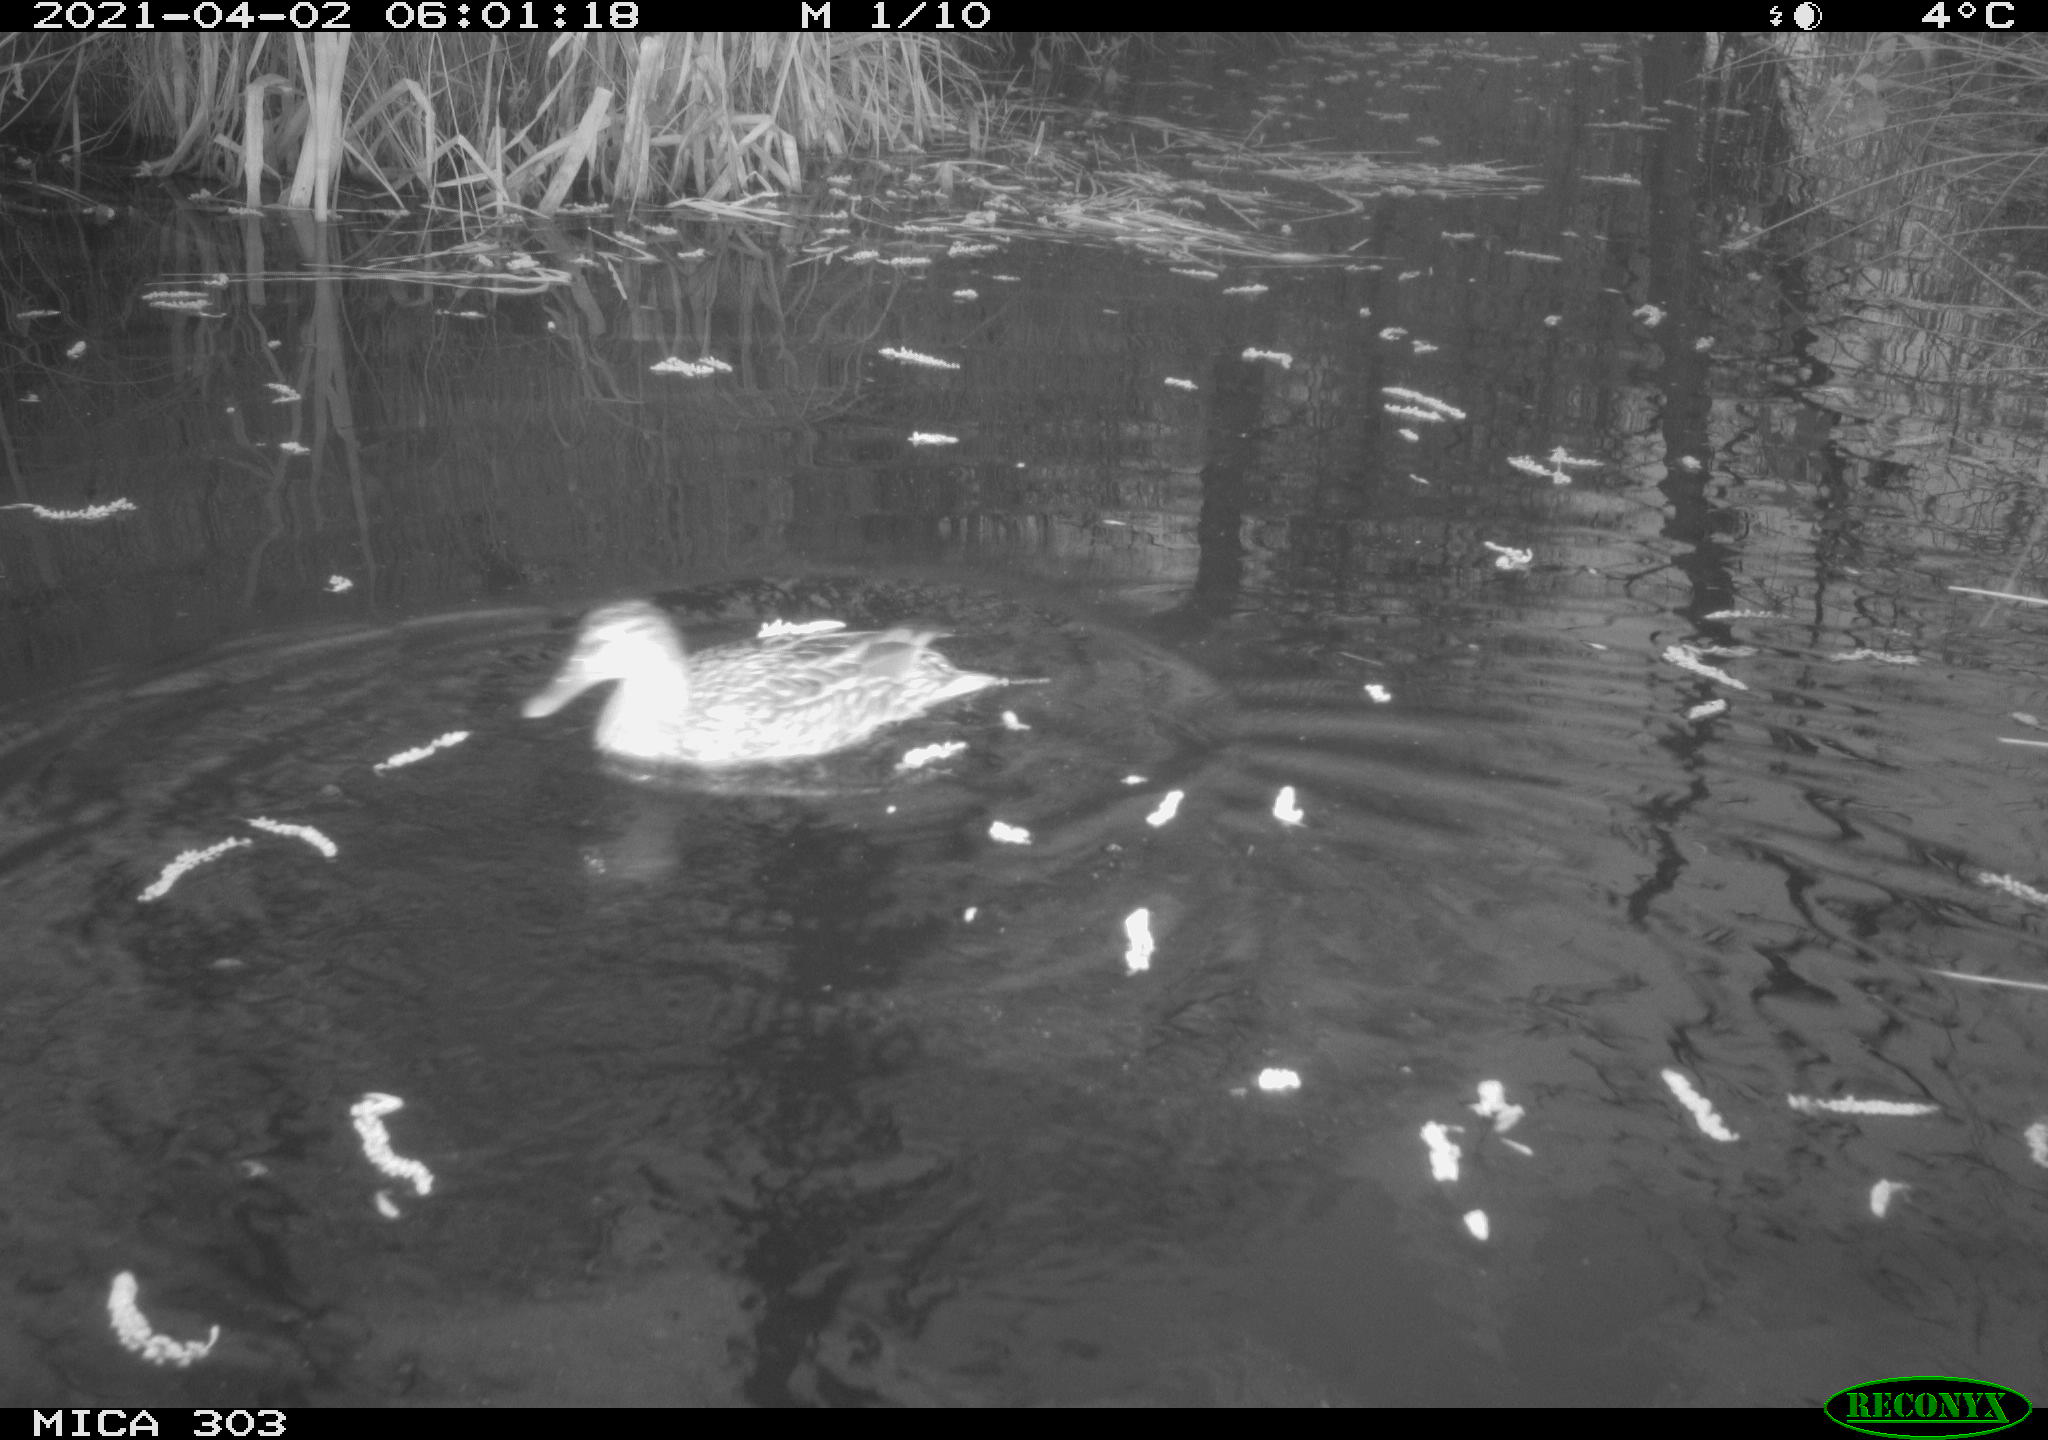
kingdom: Animalia
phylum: Chordata
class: Aves
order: Anseriformes
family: Anatidae
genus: Anas
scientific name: Anas platyrhynchos
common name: Mallard
